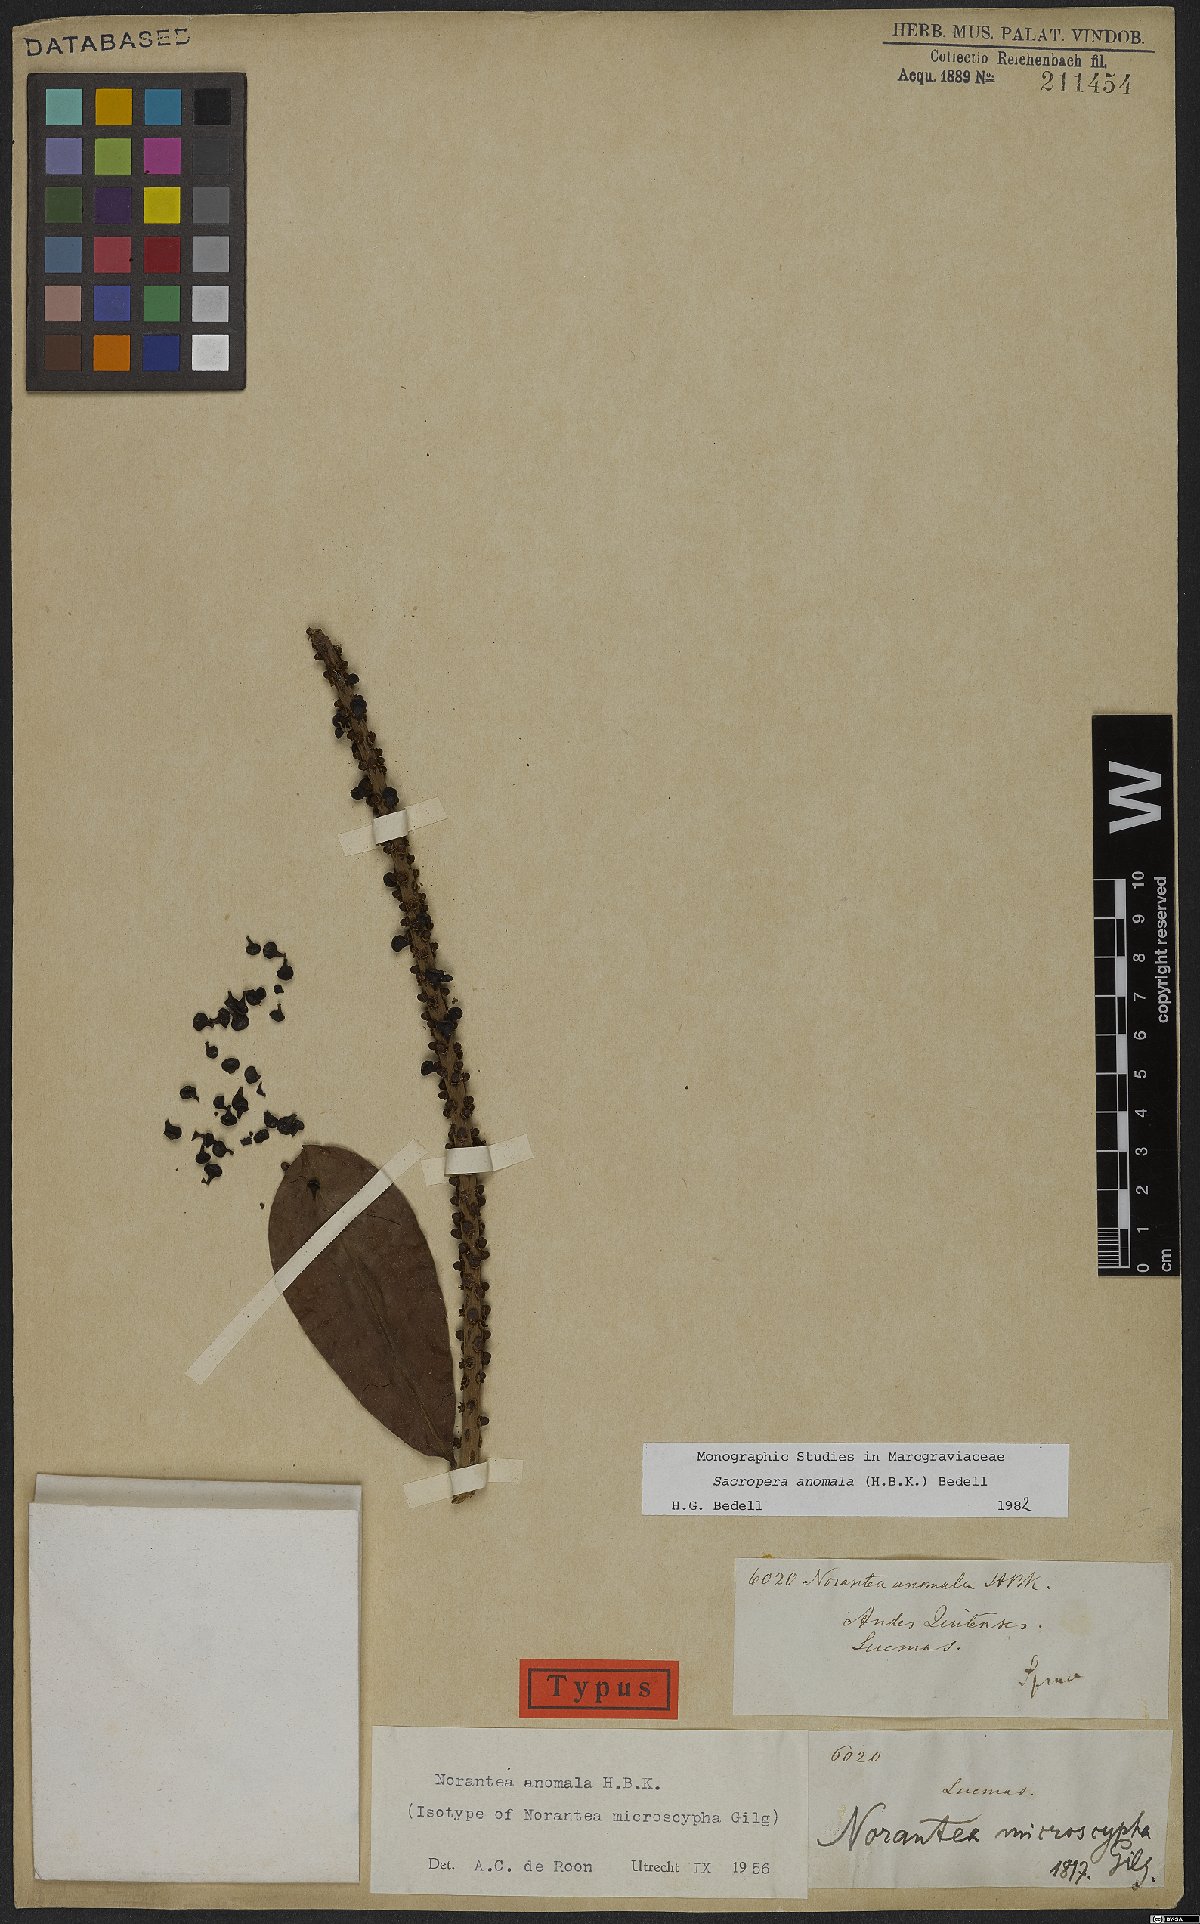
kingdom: Plantae
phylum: Tracheophyta
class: Magnoliopsida
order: Ericales
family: Marcgraviaceae
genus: Sarcopera
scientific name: Sarcopera anomala
